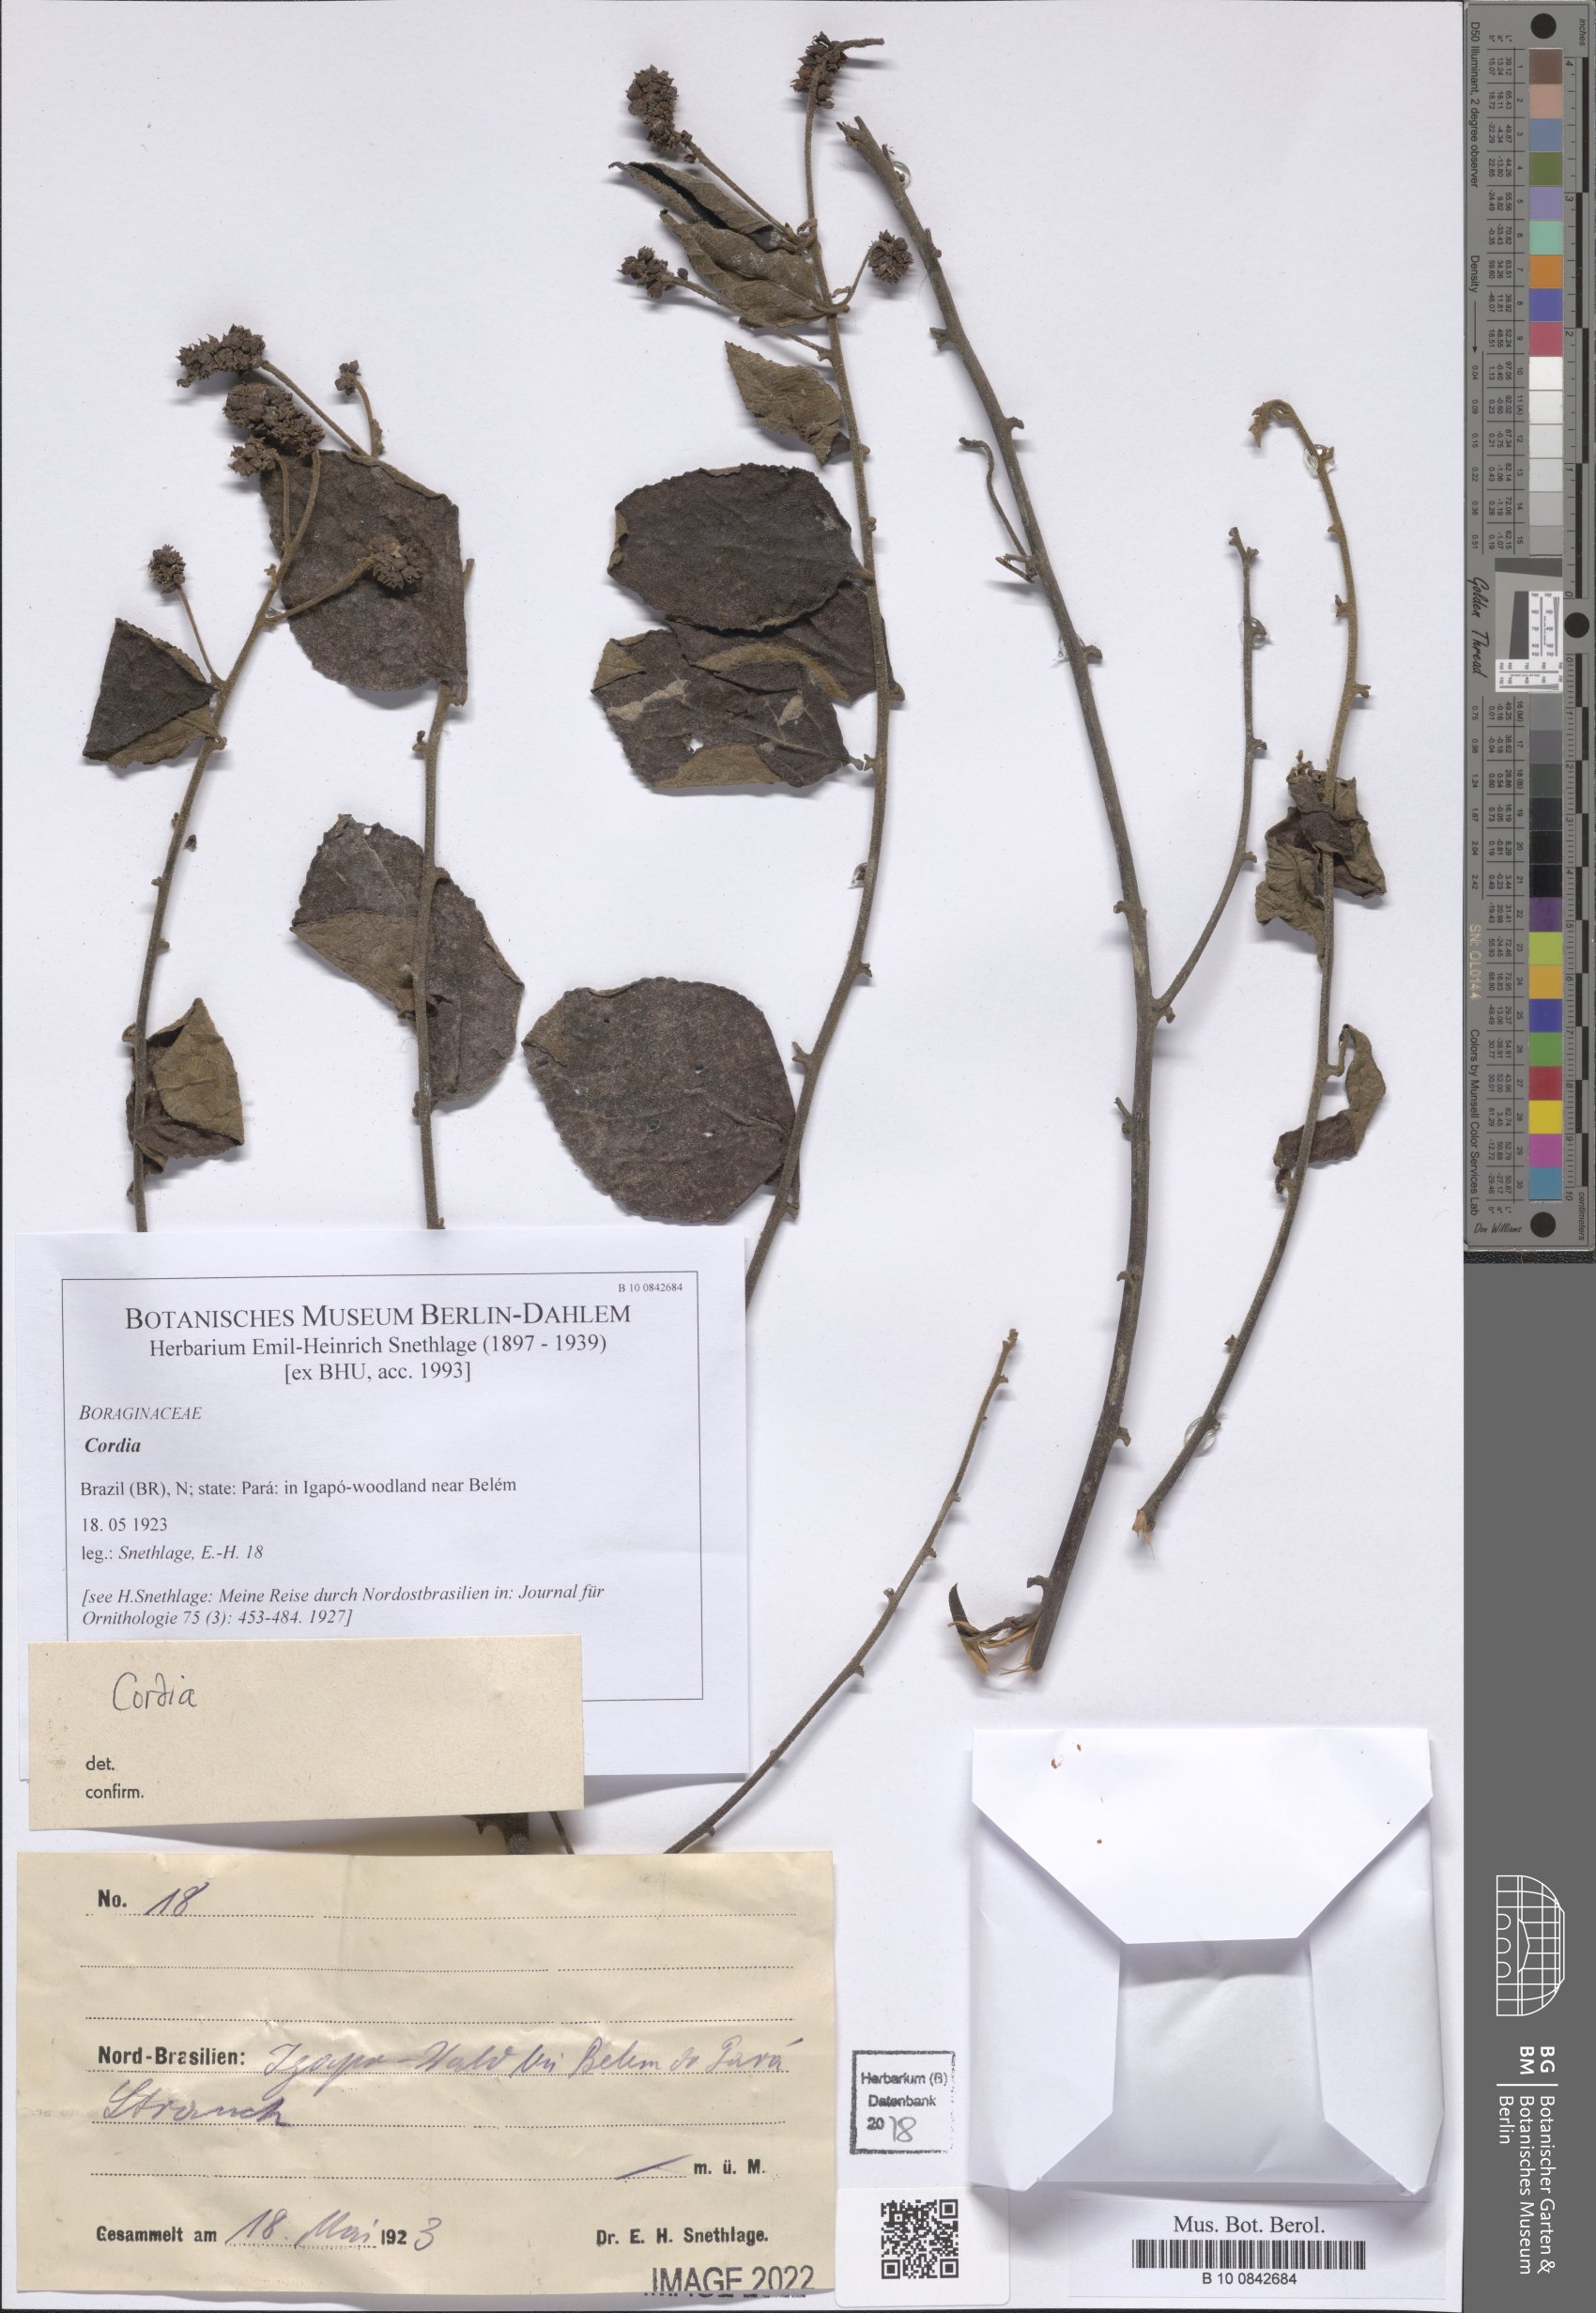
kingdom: Plantae
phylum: Tracheophyta
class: Magnoliopsida
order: Boraginales
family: Cordiaceae
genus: Cordia
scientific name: Cordia
